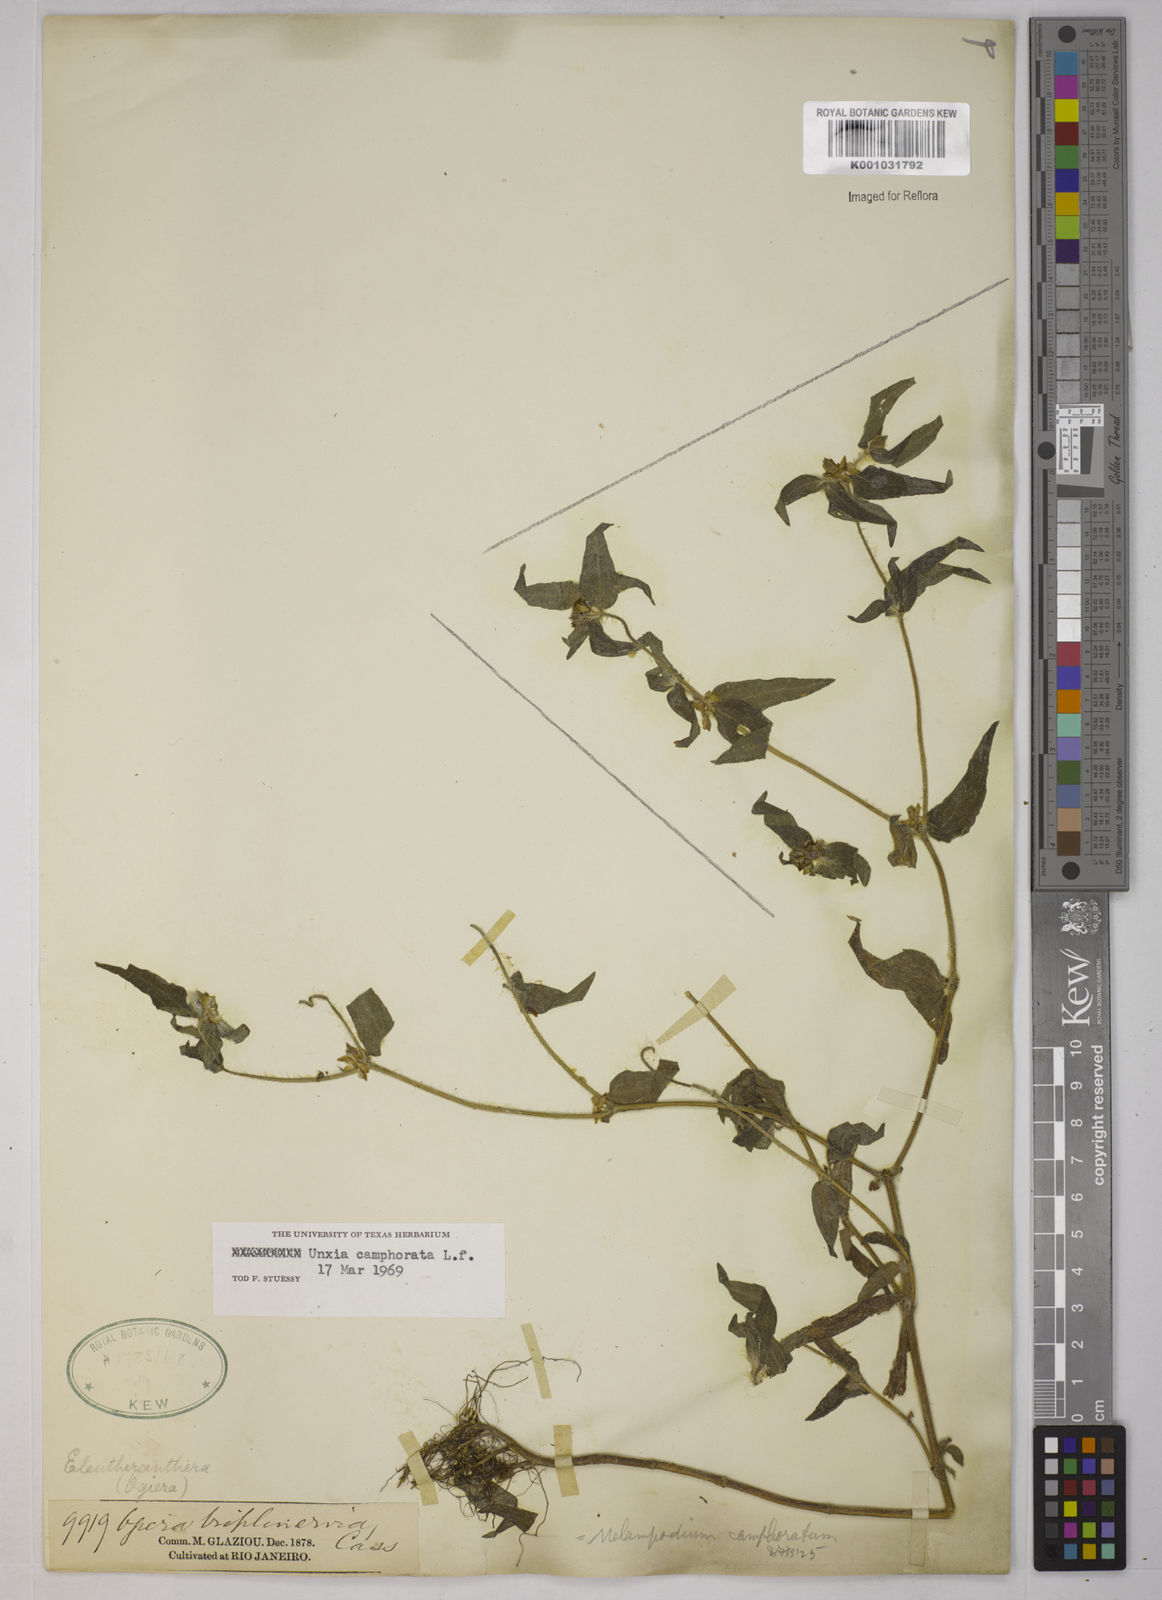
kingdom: Plantae
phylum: Tracheophyta
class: Magnoliopsida
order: Asterales
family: Asteraceae
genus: Unxia
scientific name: Unxia camphorata
